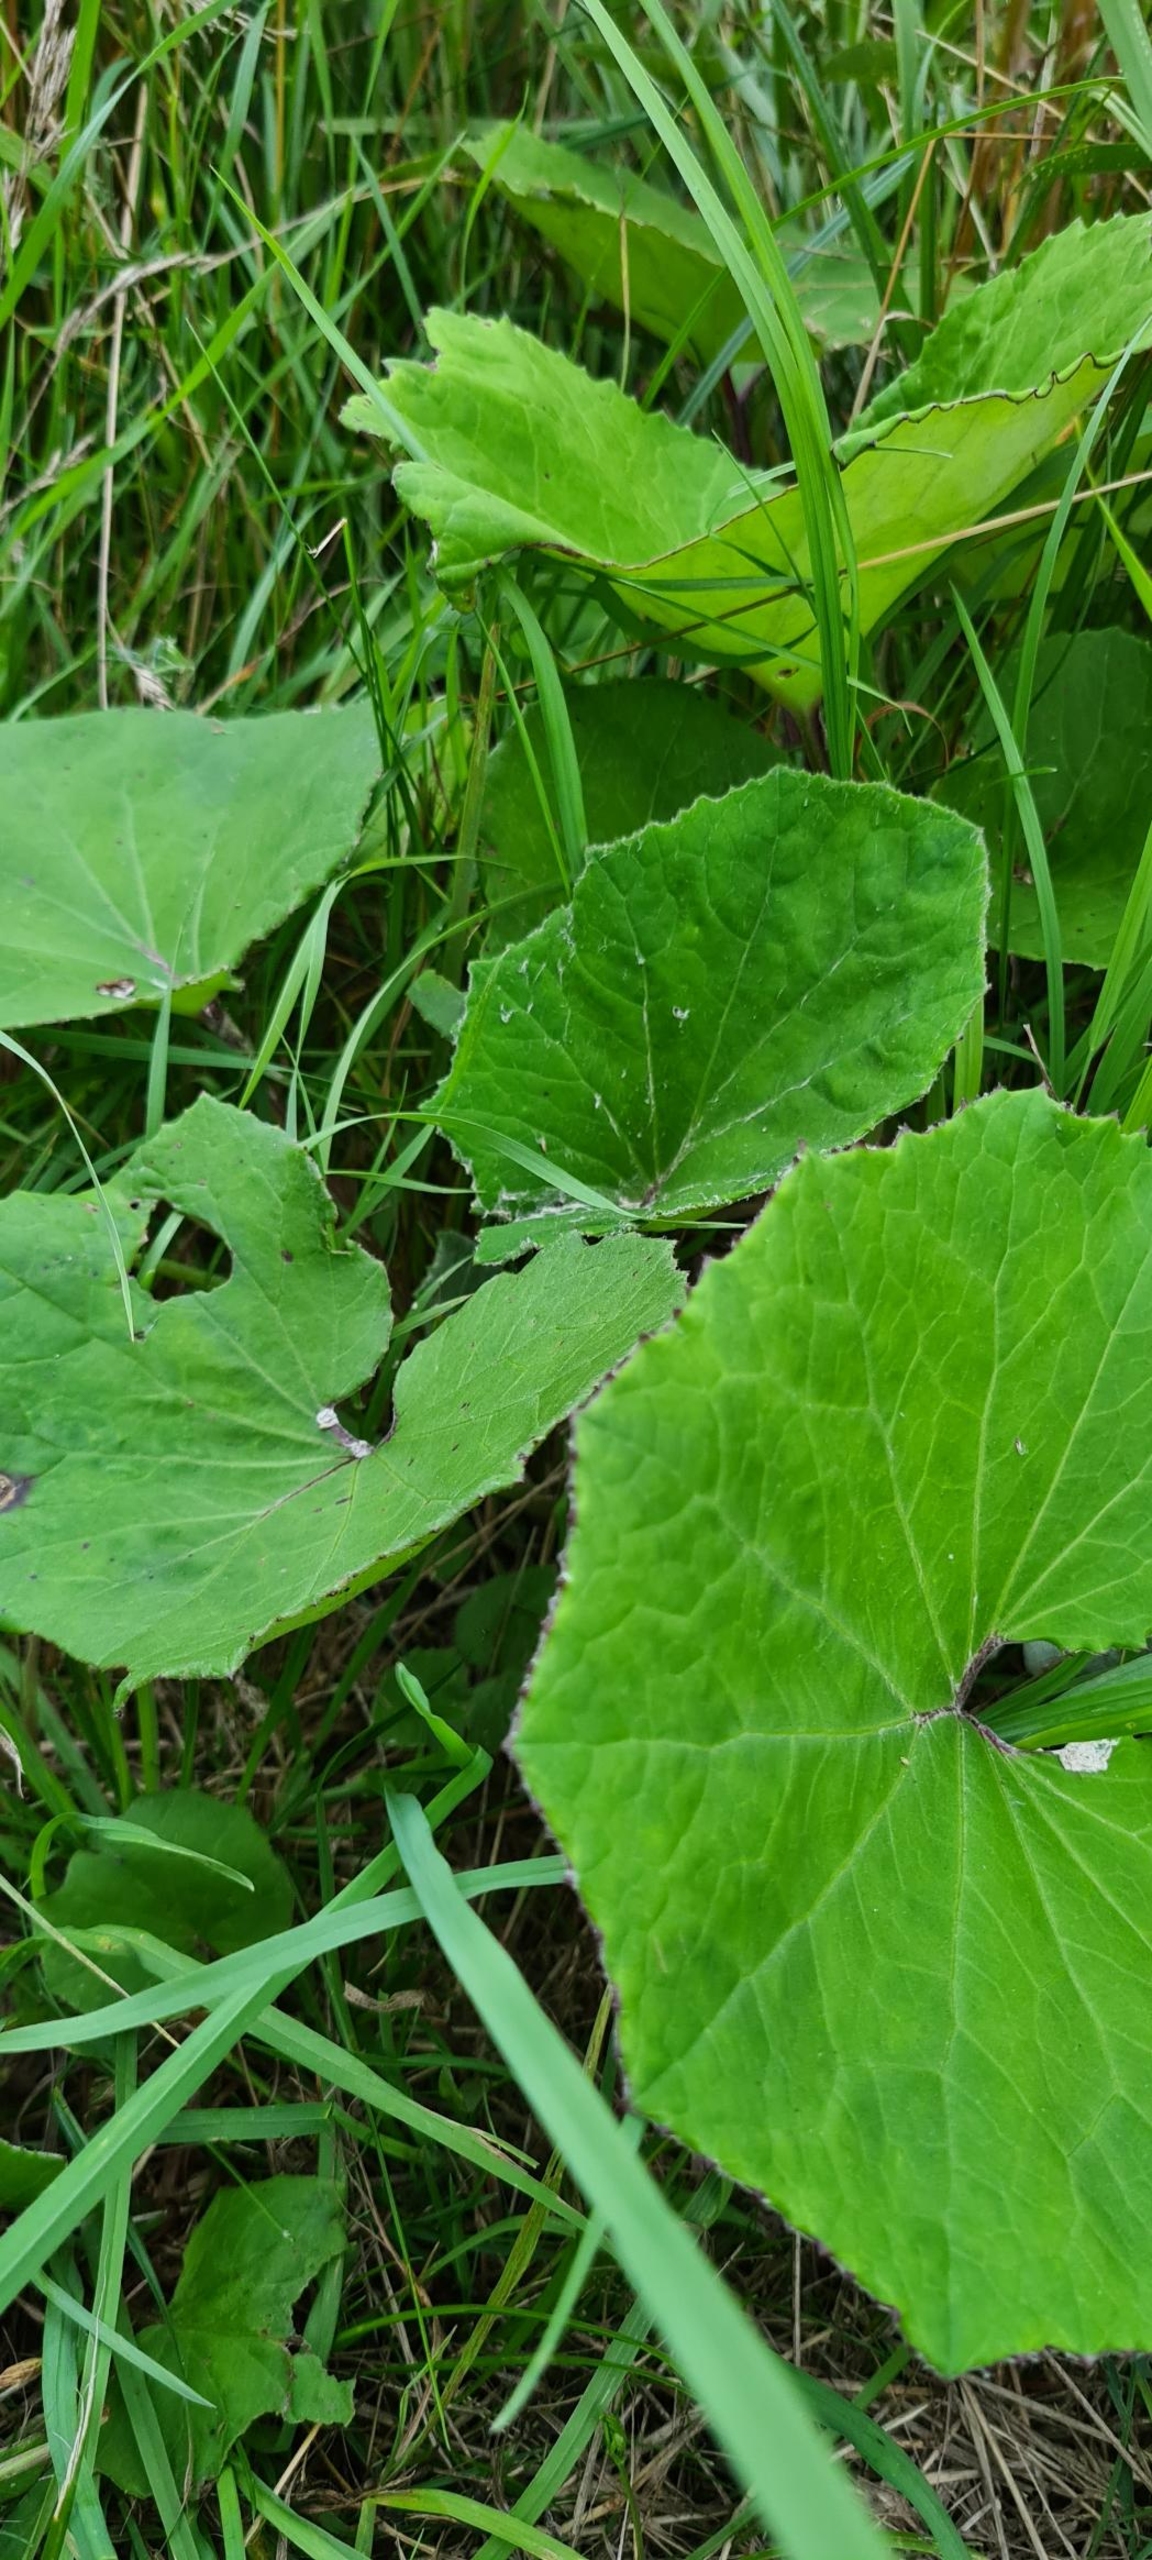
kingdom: Plantae
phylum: Tracheophyta
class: Magnoliopsida
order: Asterales
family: Asteraceae
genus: Tussilago
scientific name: Tussilago farfara
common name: Følfod
